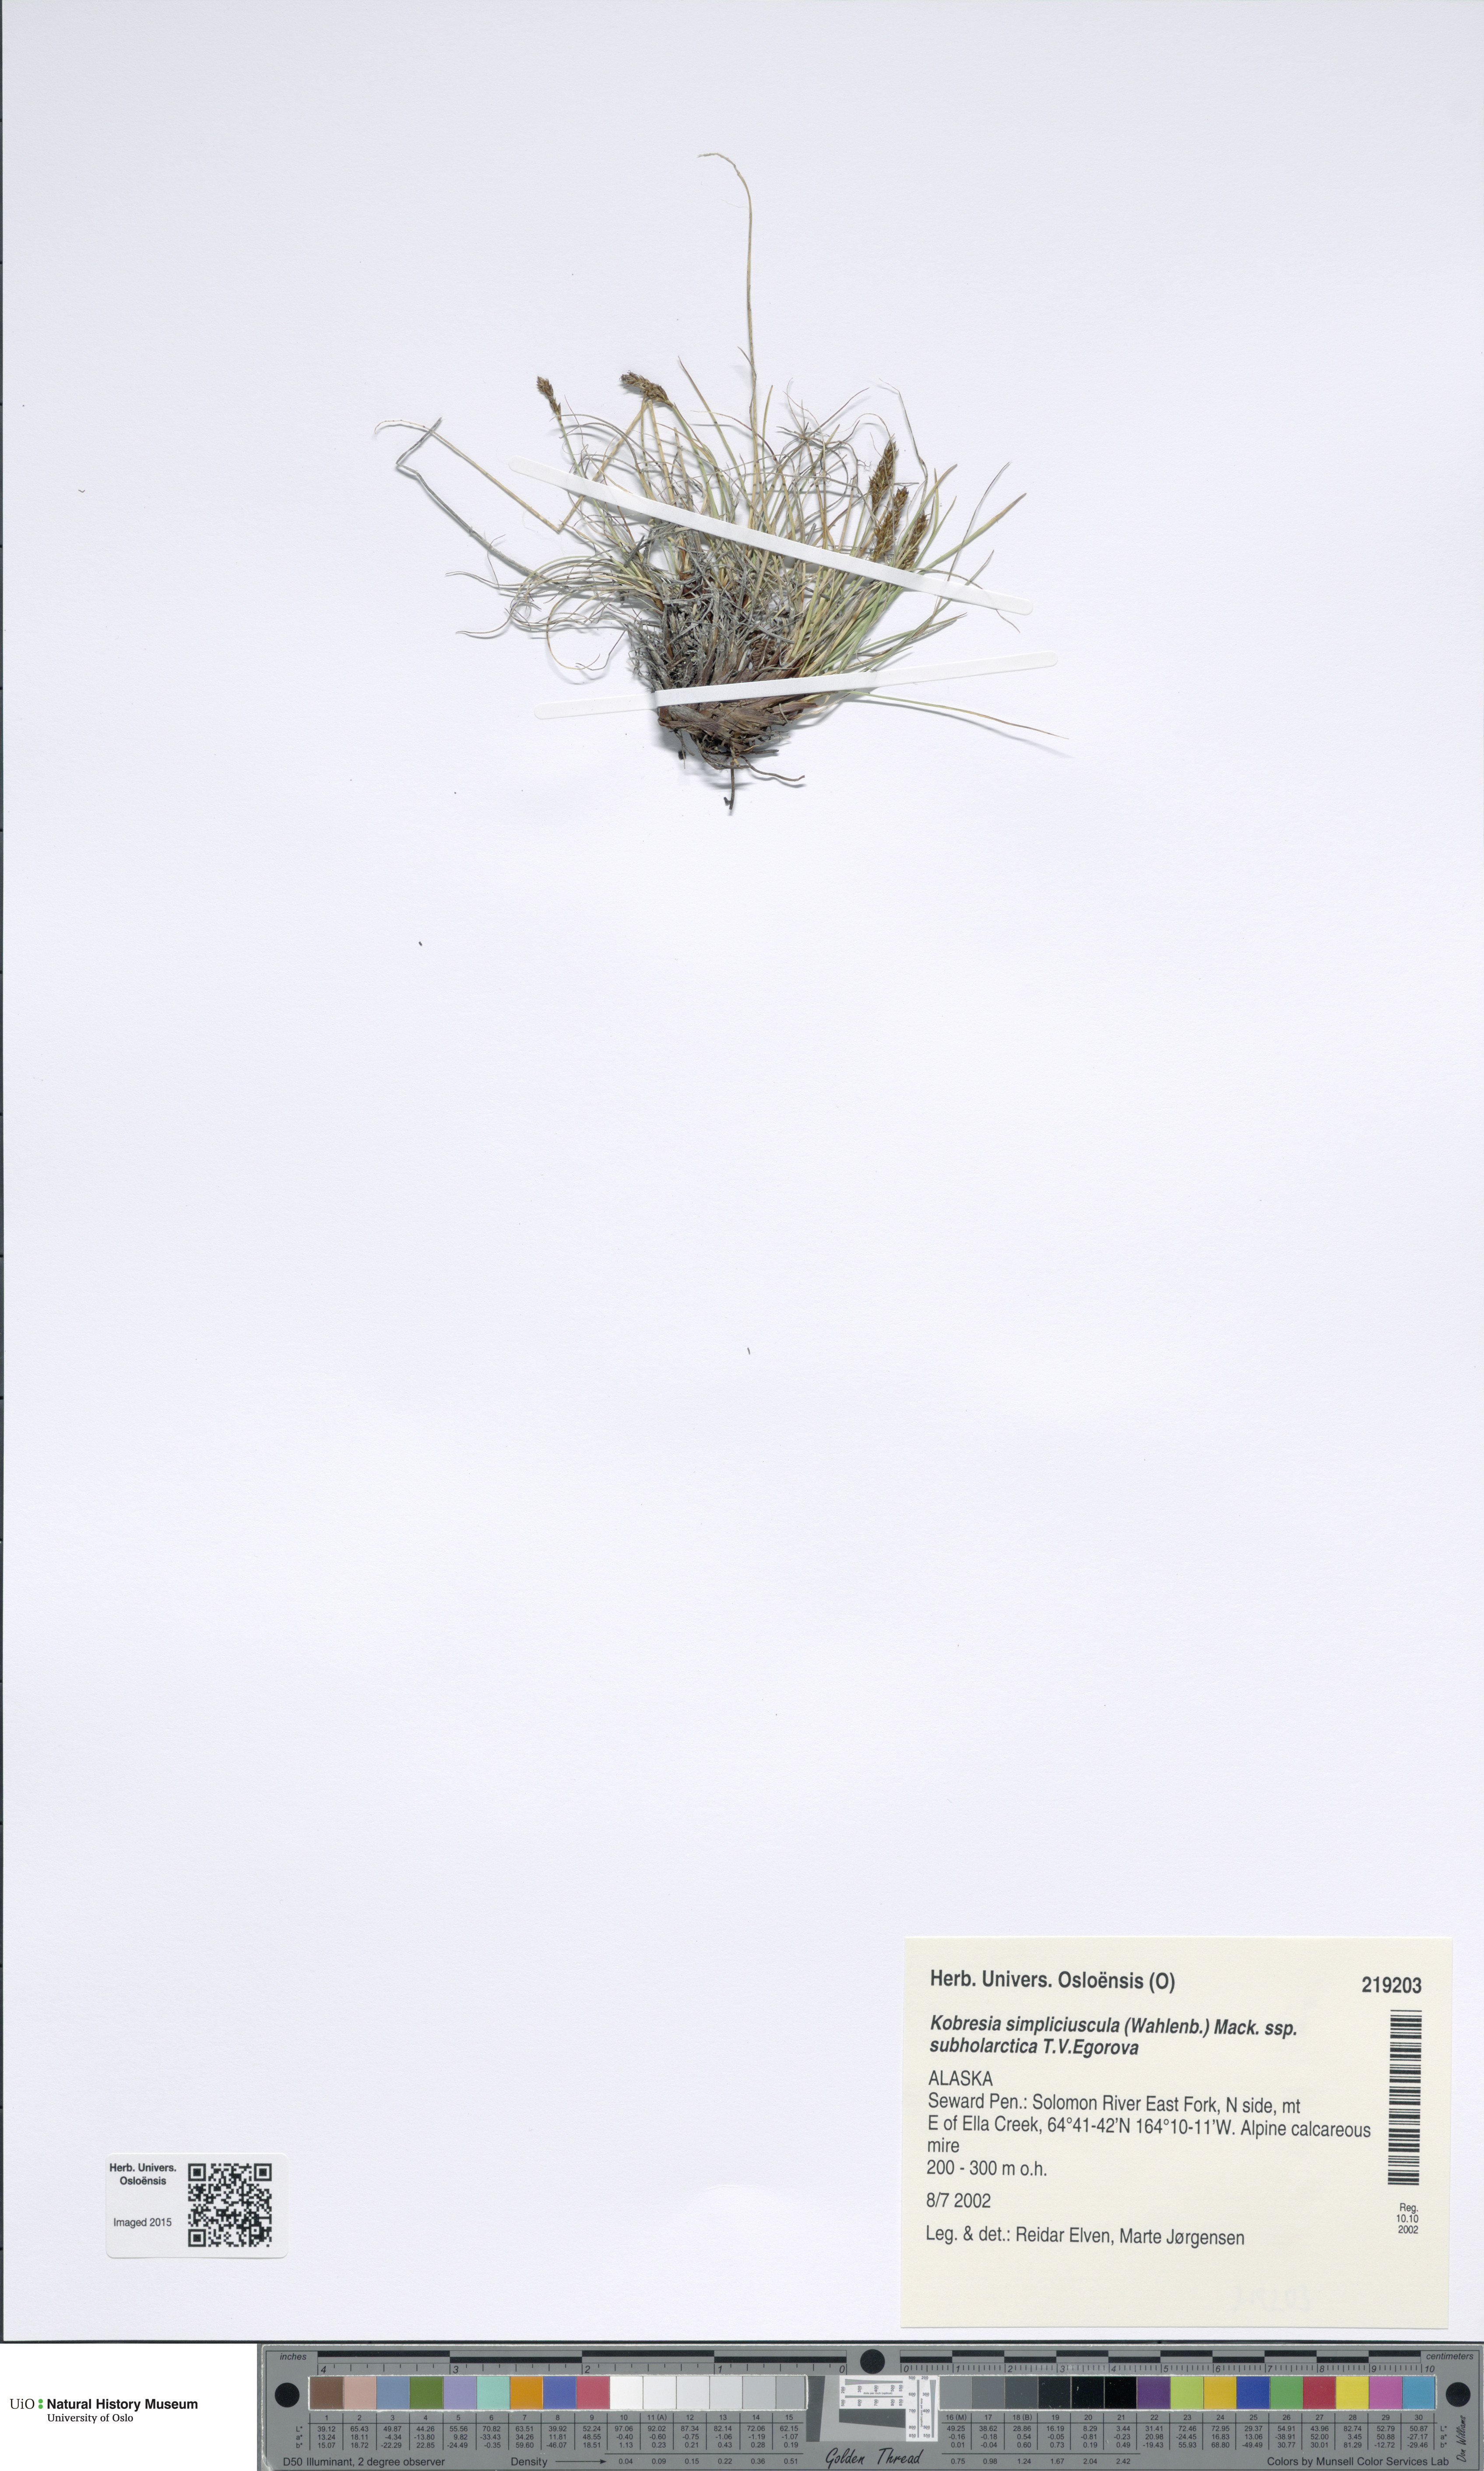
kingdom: Plantae
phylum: Tracheophyta
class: Liliopsida
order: Poales
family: Cyperaceae
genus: Carex
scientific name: Carex simpliciuscula
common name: Simple bog sedge
